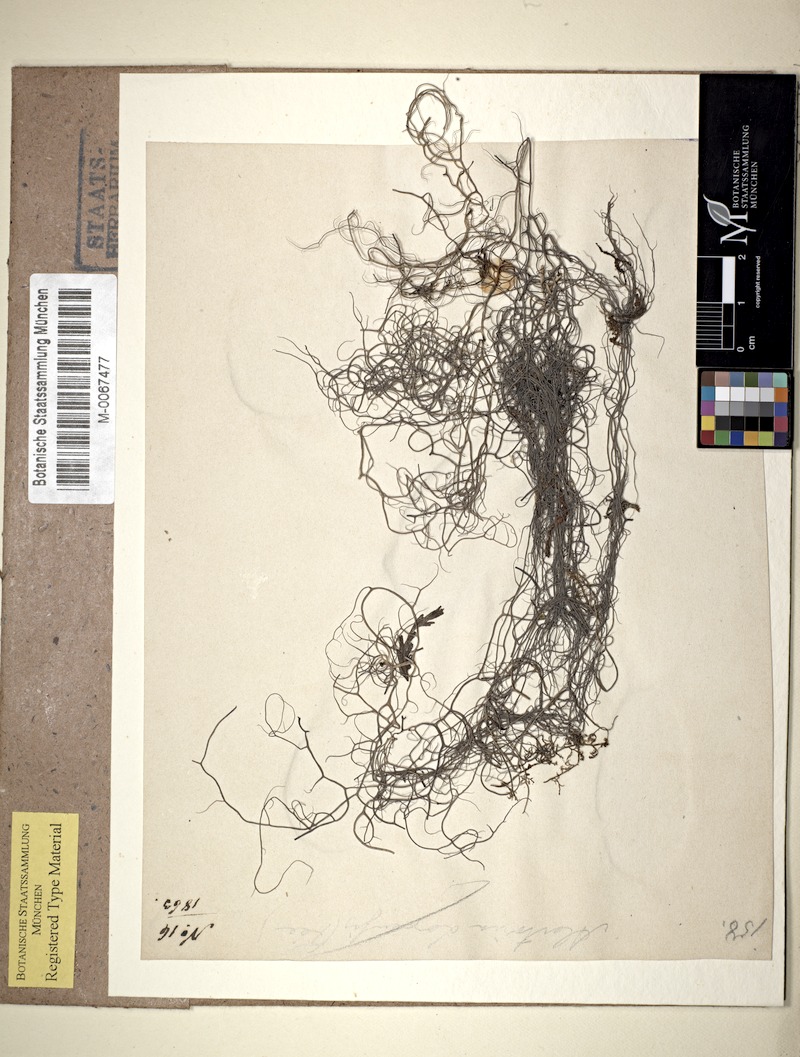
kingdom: Fungi
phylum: Ascomycota
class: Lecanoromycetes
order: Lecanorales
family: Parmeliaceae
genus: Oropogon
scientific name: Oropogon cinereus
